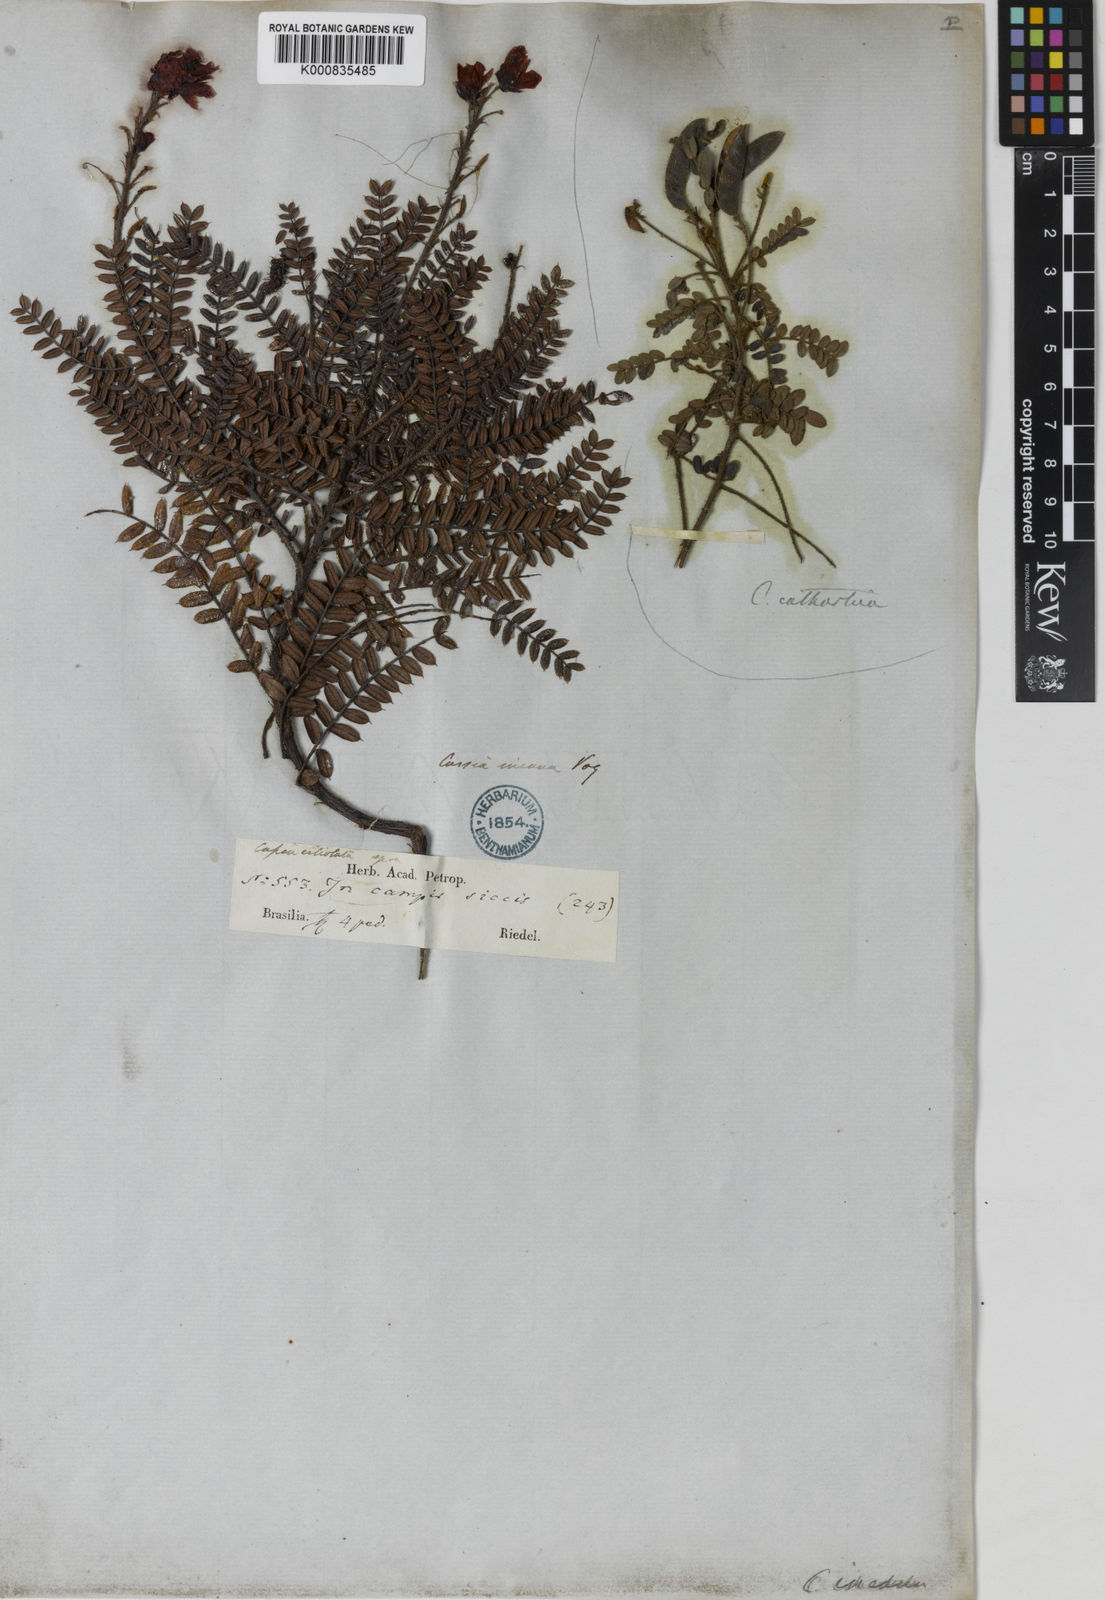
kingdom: Plantae
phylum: Tracheophyta
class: Magnoliopsida
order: Fabales
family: Fabaceae
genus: Chamaecrista
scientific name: Chamaecrista incana
